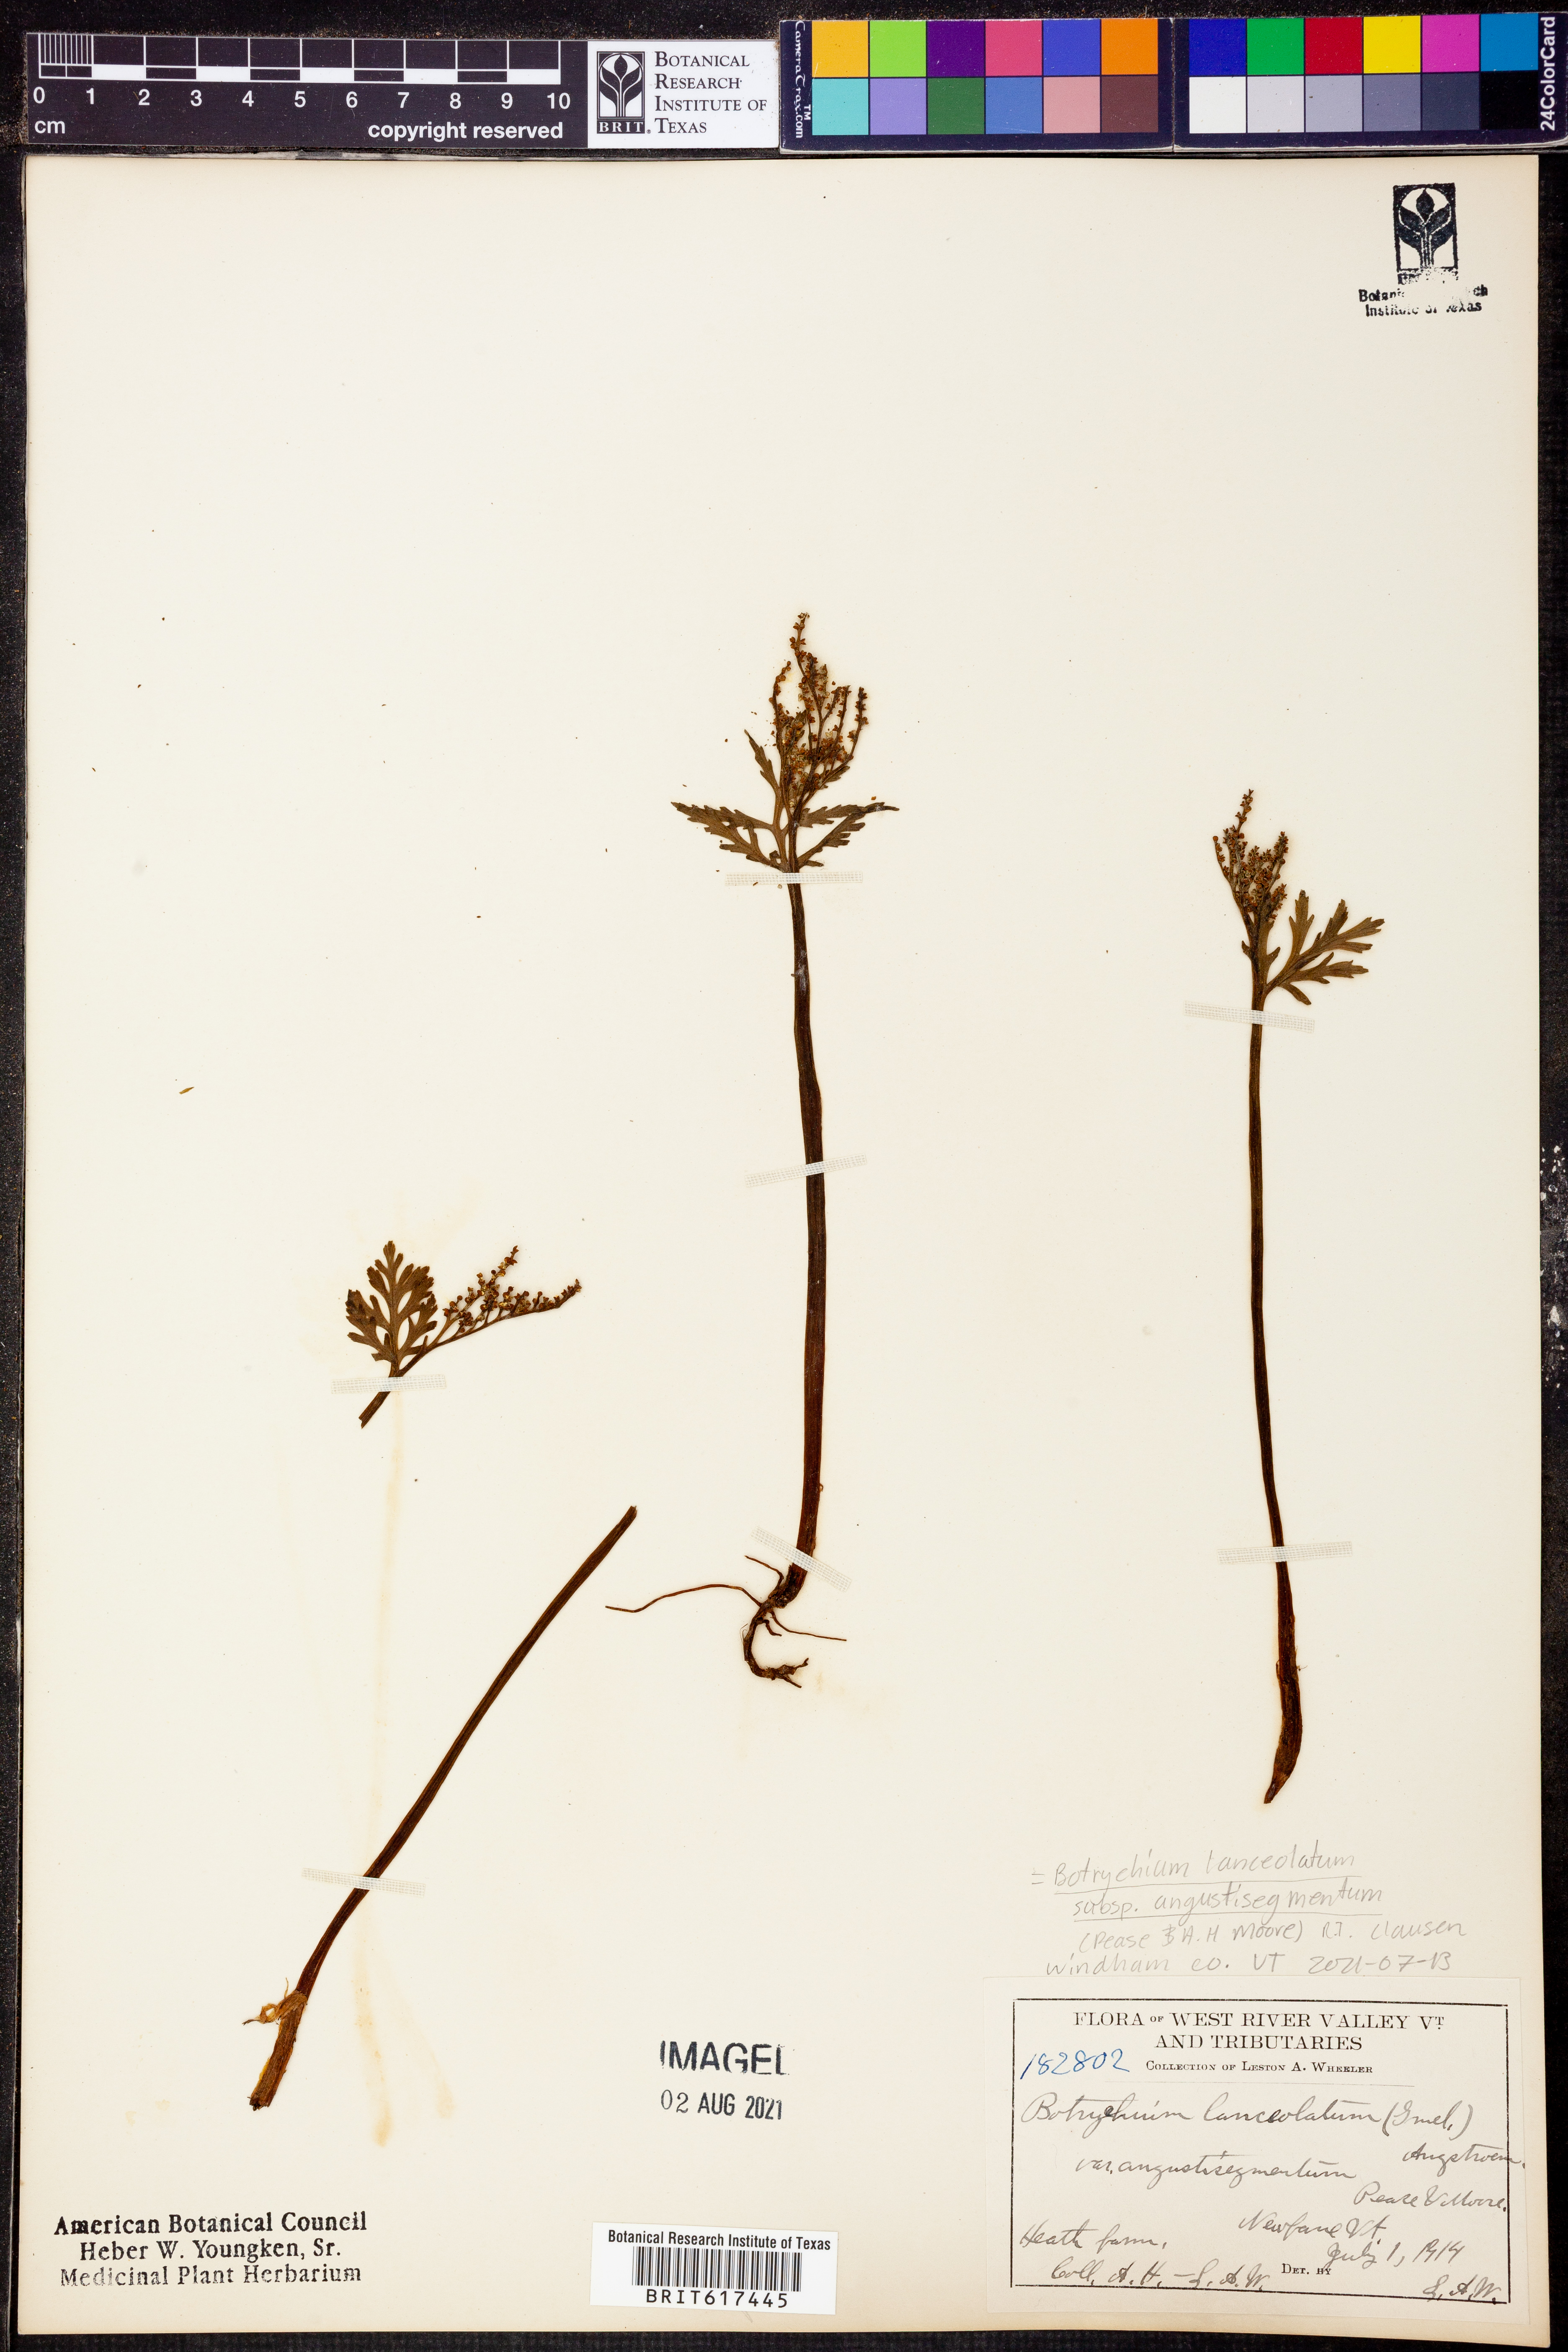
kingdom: Plantae
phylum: Tracheophyta
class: Polypodiopsida
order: Ophioglossales
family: Ophioglossaceae
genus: Botrychium
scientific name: Botrychium angustisegmentum
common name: Narrow triangle moonwort
